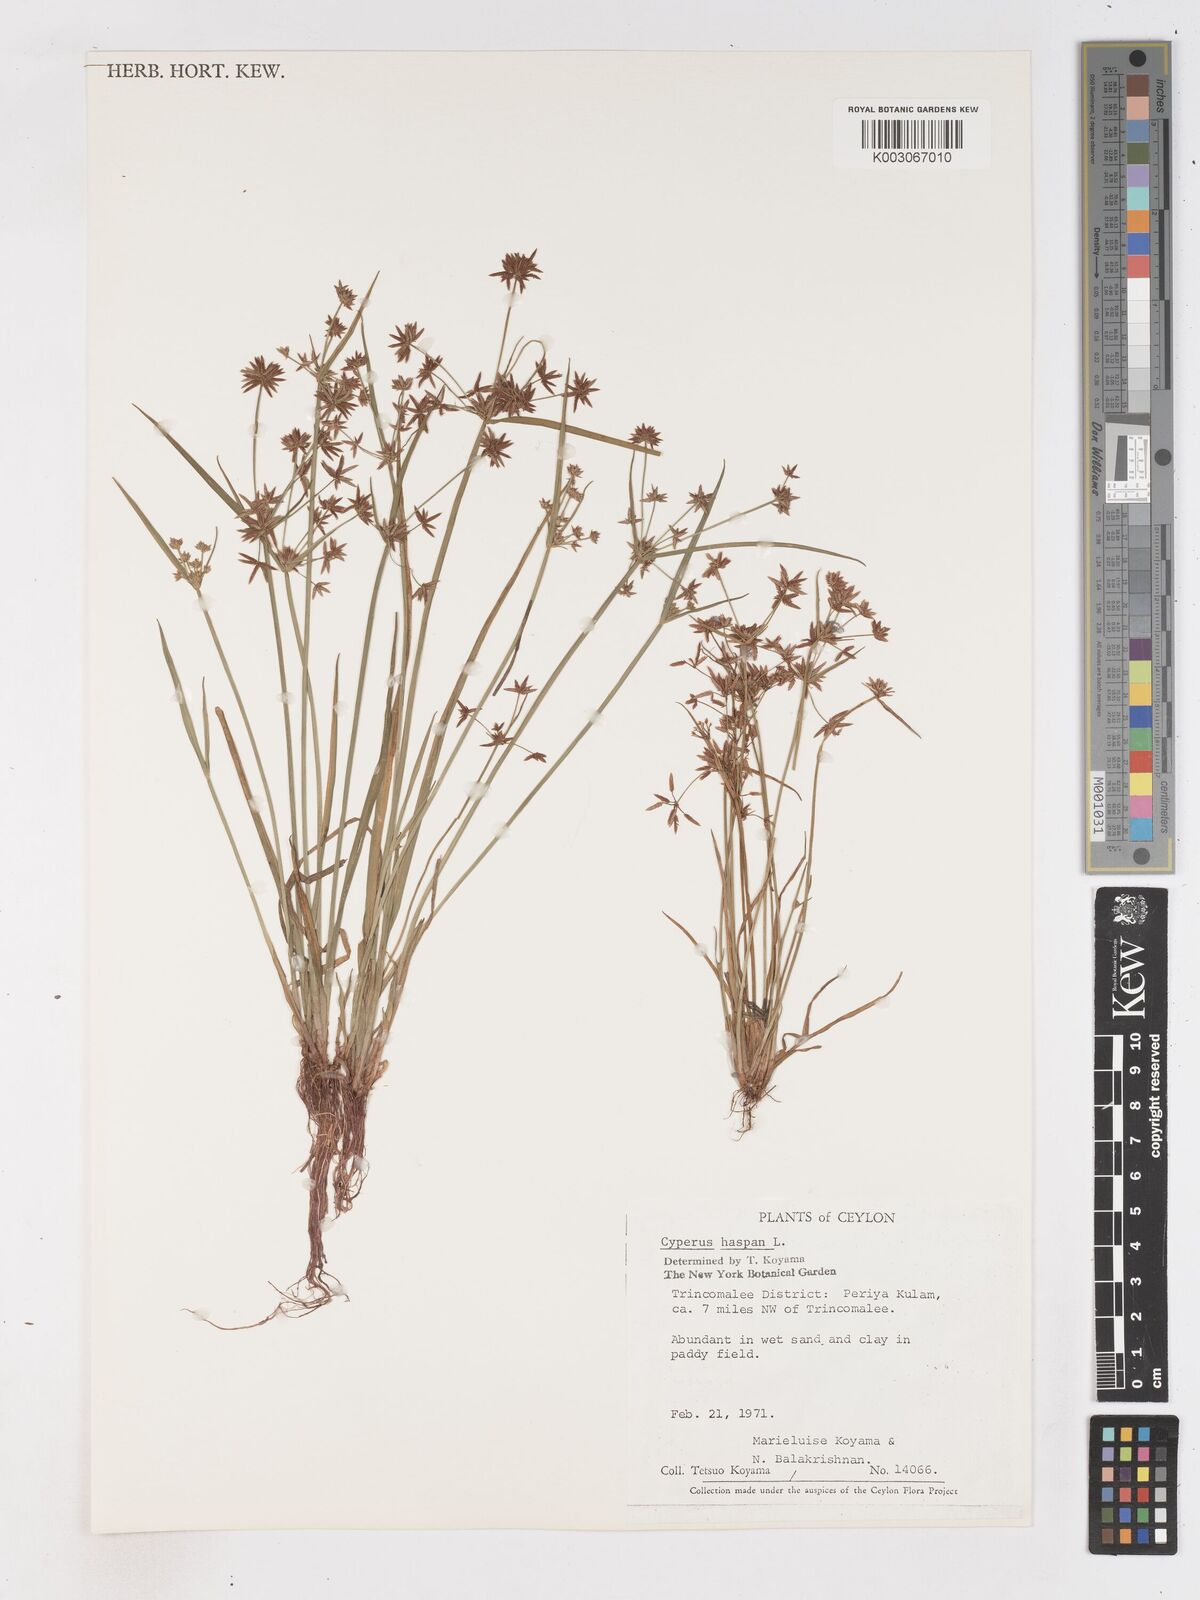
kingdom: Plantae
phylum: Tracheophyta
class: Liliopsida
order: Poales
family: Cyperaceae
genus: Cyperus
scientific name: Cyperus haspan
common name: Haspan flatsedge
